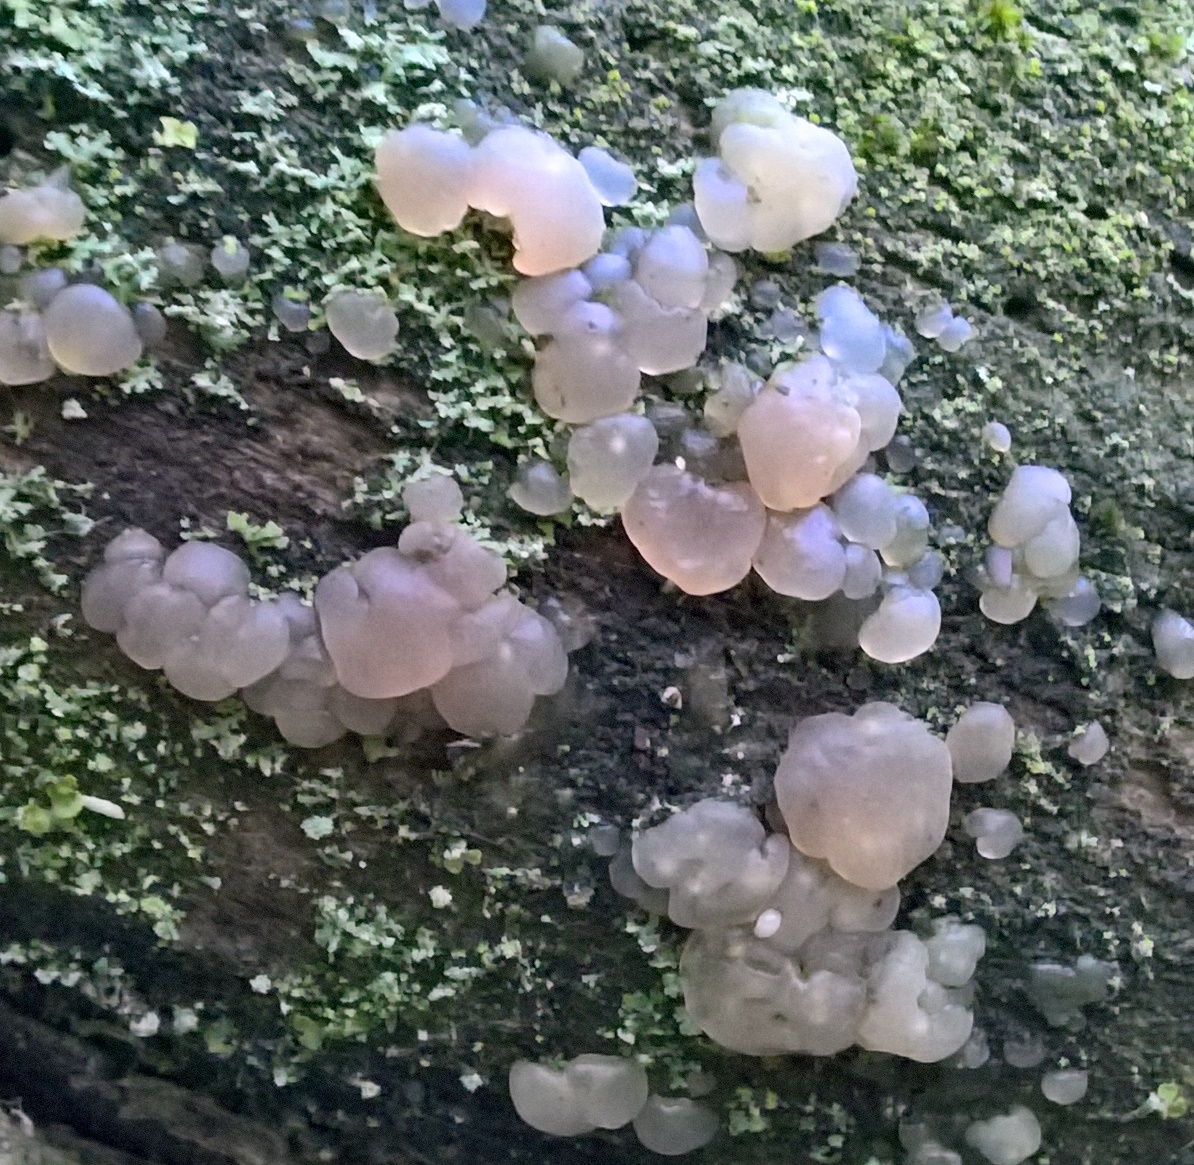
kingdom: Fungi
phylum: Basidiomycota
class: Agaricomycetes
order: Auriculariales
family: Hyaloriaceae
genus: Myxarium
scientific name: Myxarium nucleatum
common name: klar bævretop
